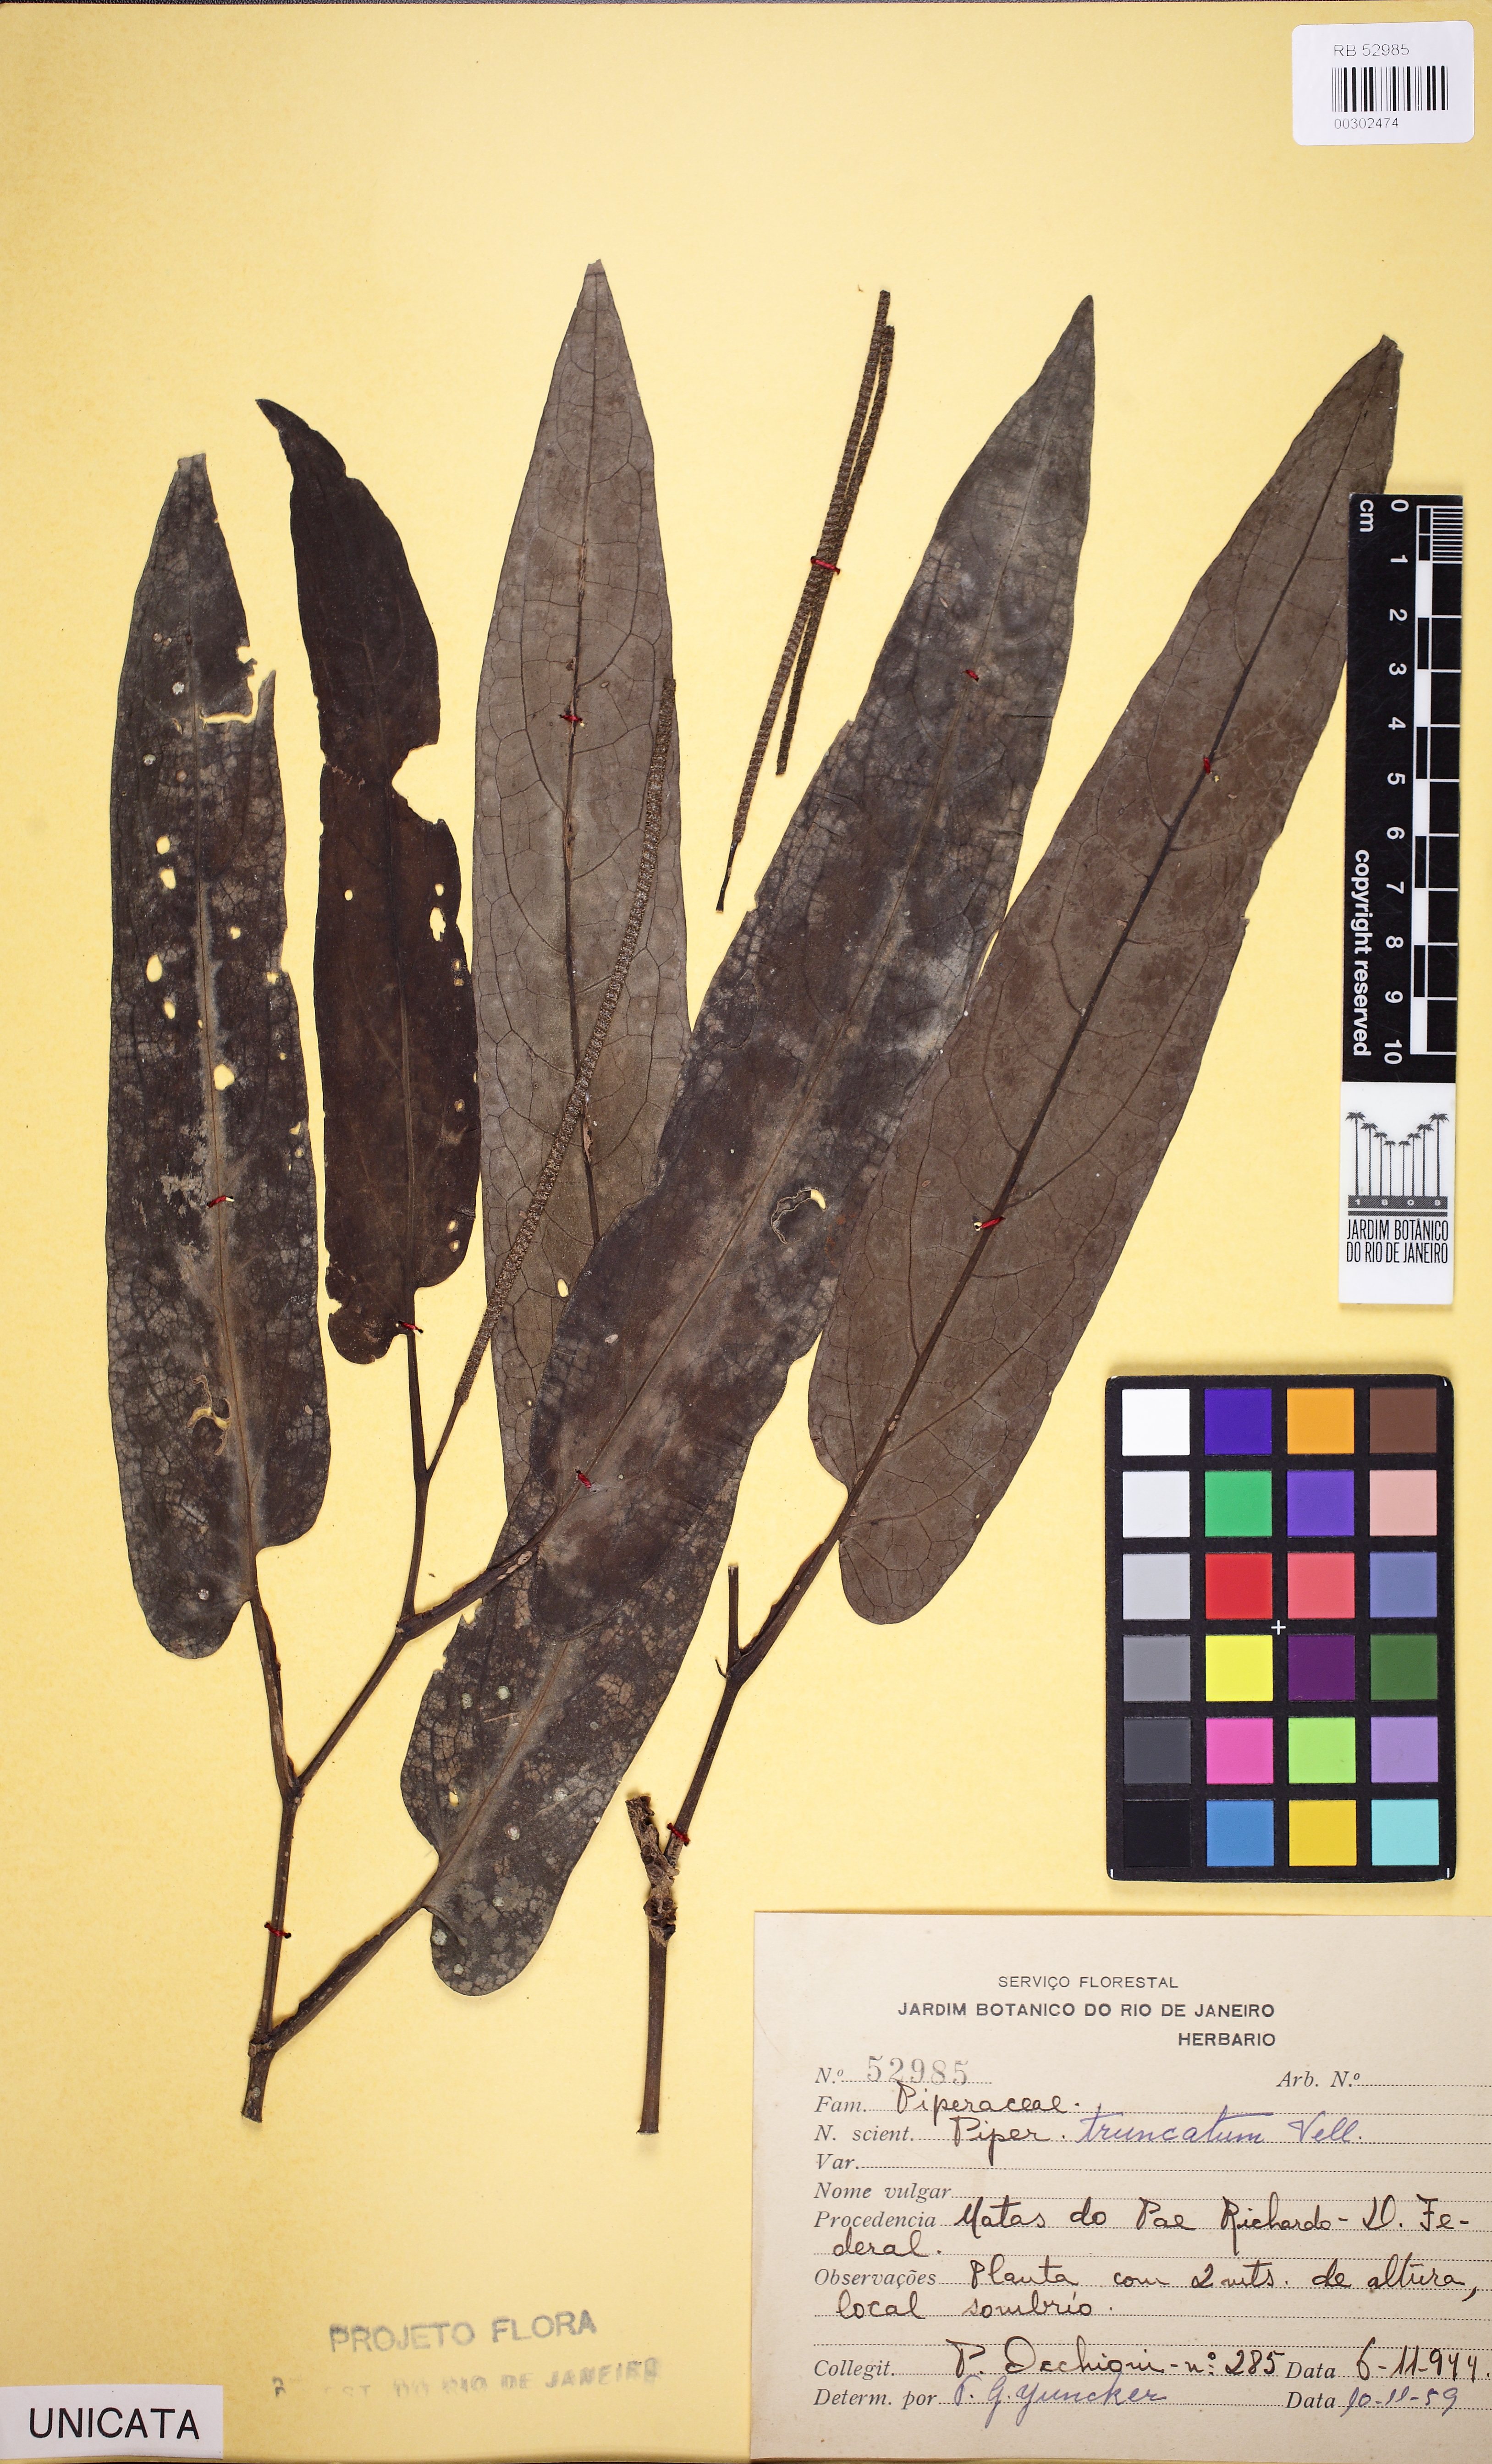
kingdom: Plantae
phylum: Tracheophyta
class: Magnoliopsida
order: Piperales
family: Piperaceae
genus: Piper
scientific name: Piper truncatum
